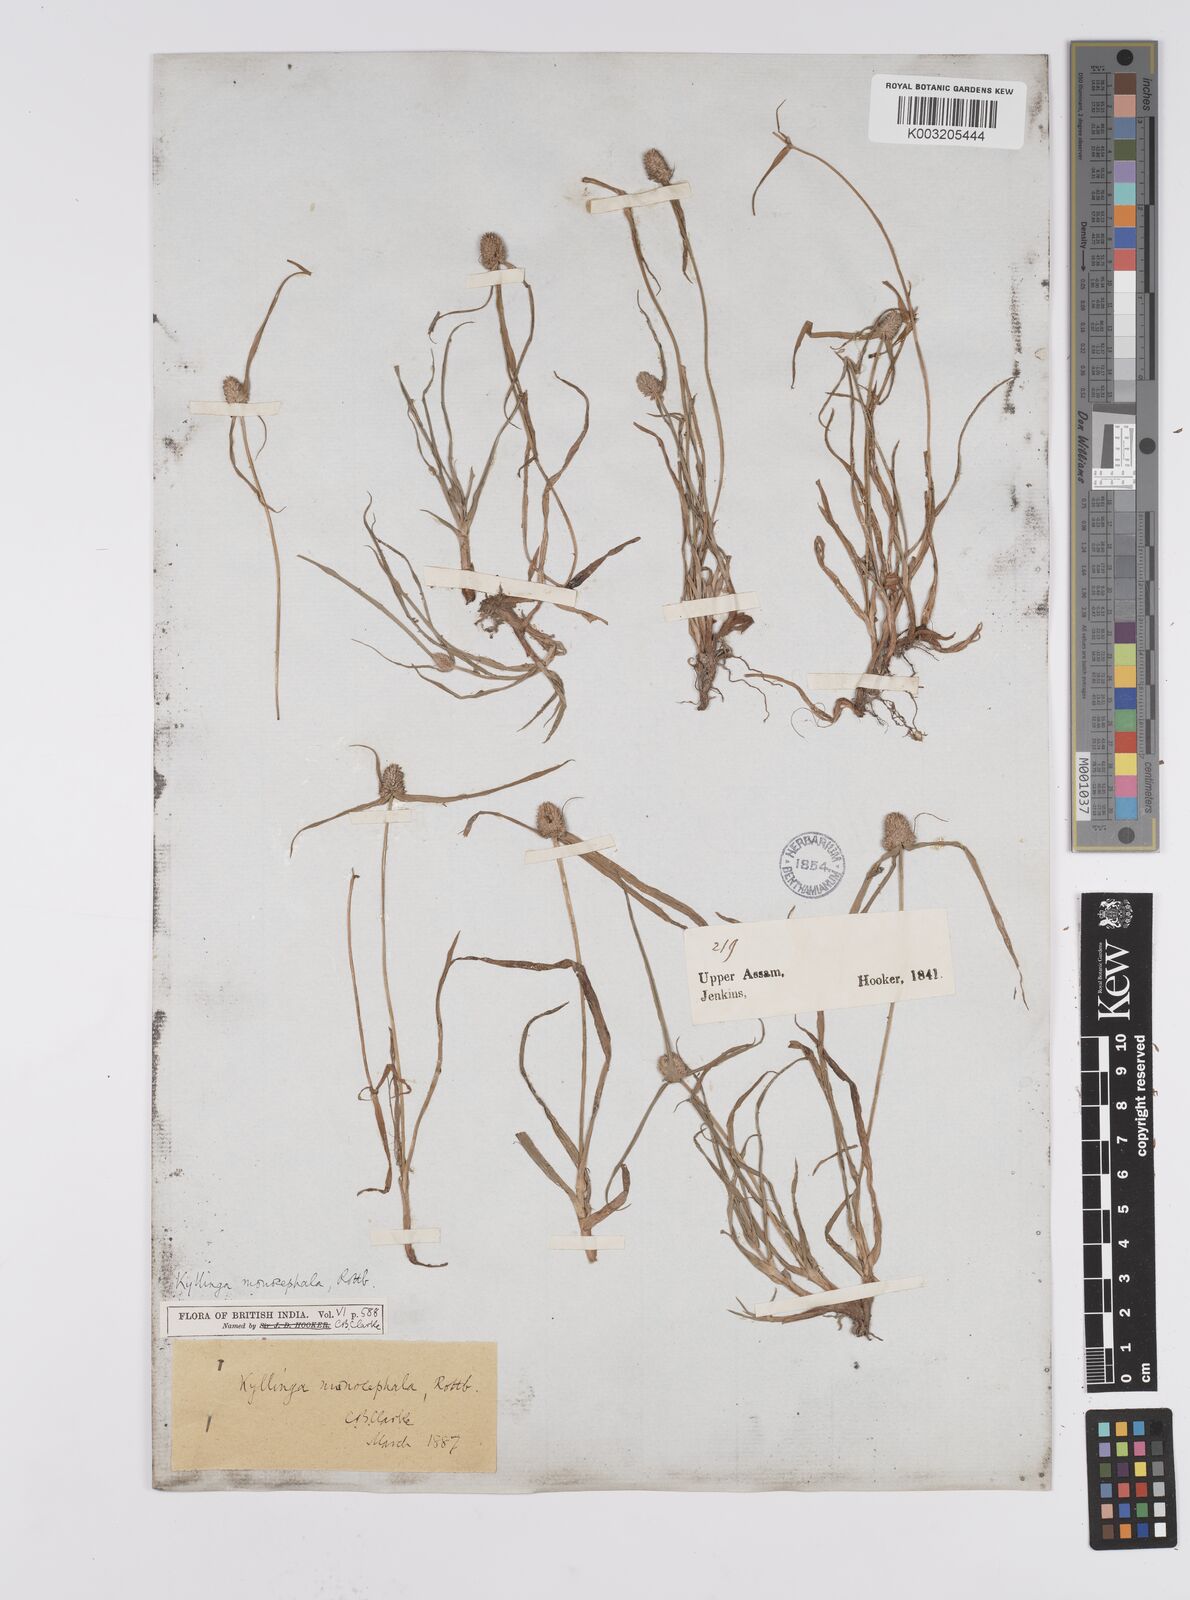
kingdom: Plantae
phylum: Tracheophyta
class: Liliopsida
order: Poales
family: Cyperaceae
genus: Cyperus
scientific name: Cyperus nemoralis
